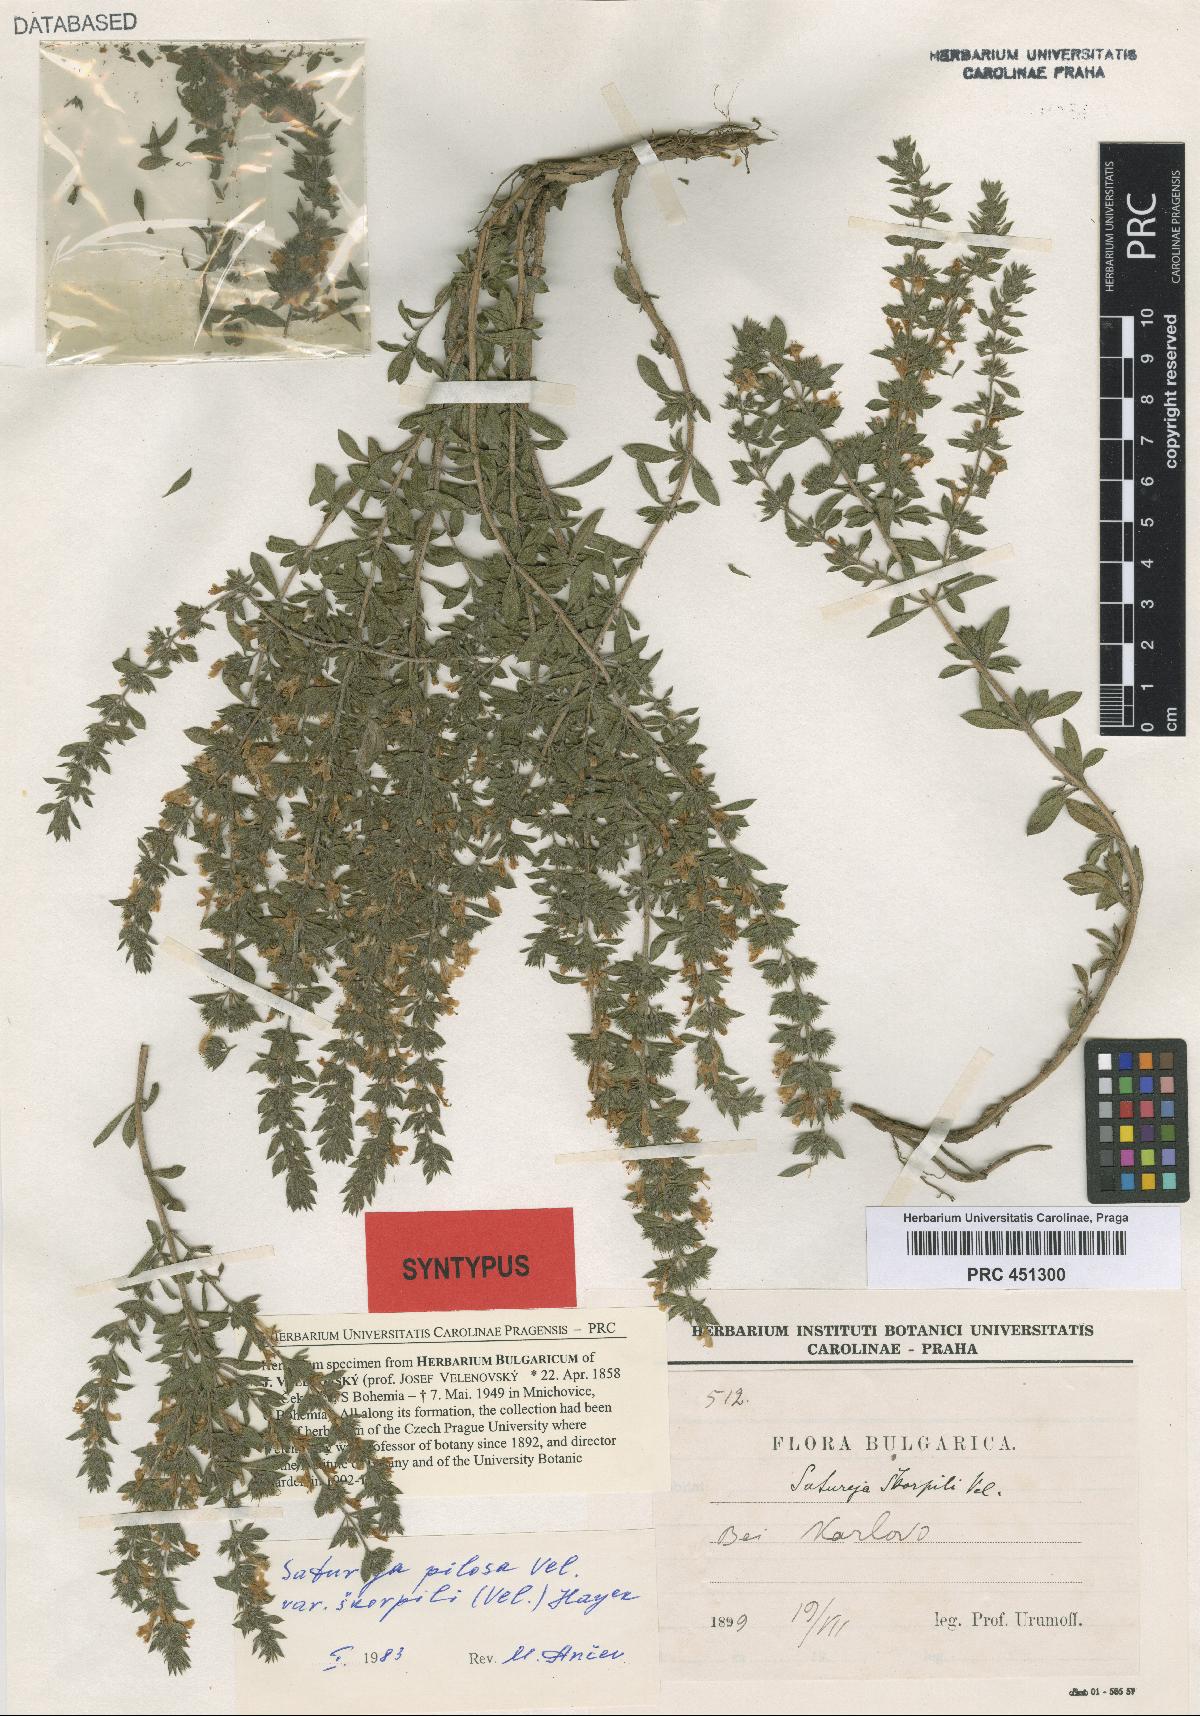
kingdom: Plantae
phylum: Tracheophyta
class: Magnoliopsida
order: Lamiales
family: Lamiaceae
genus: Satureja
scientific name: Satureja coerulea
